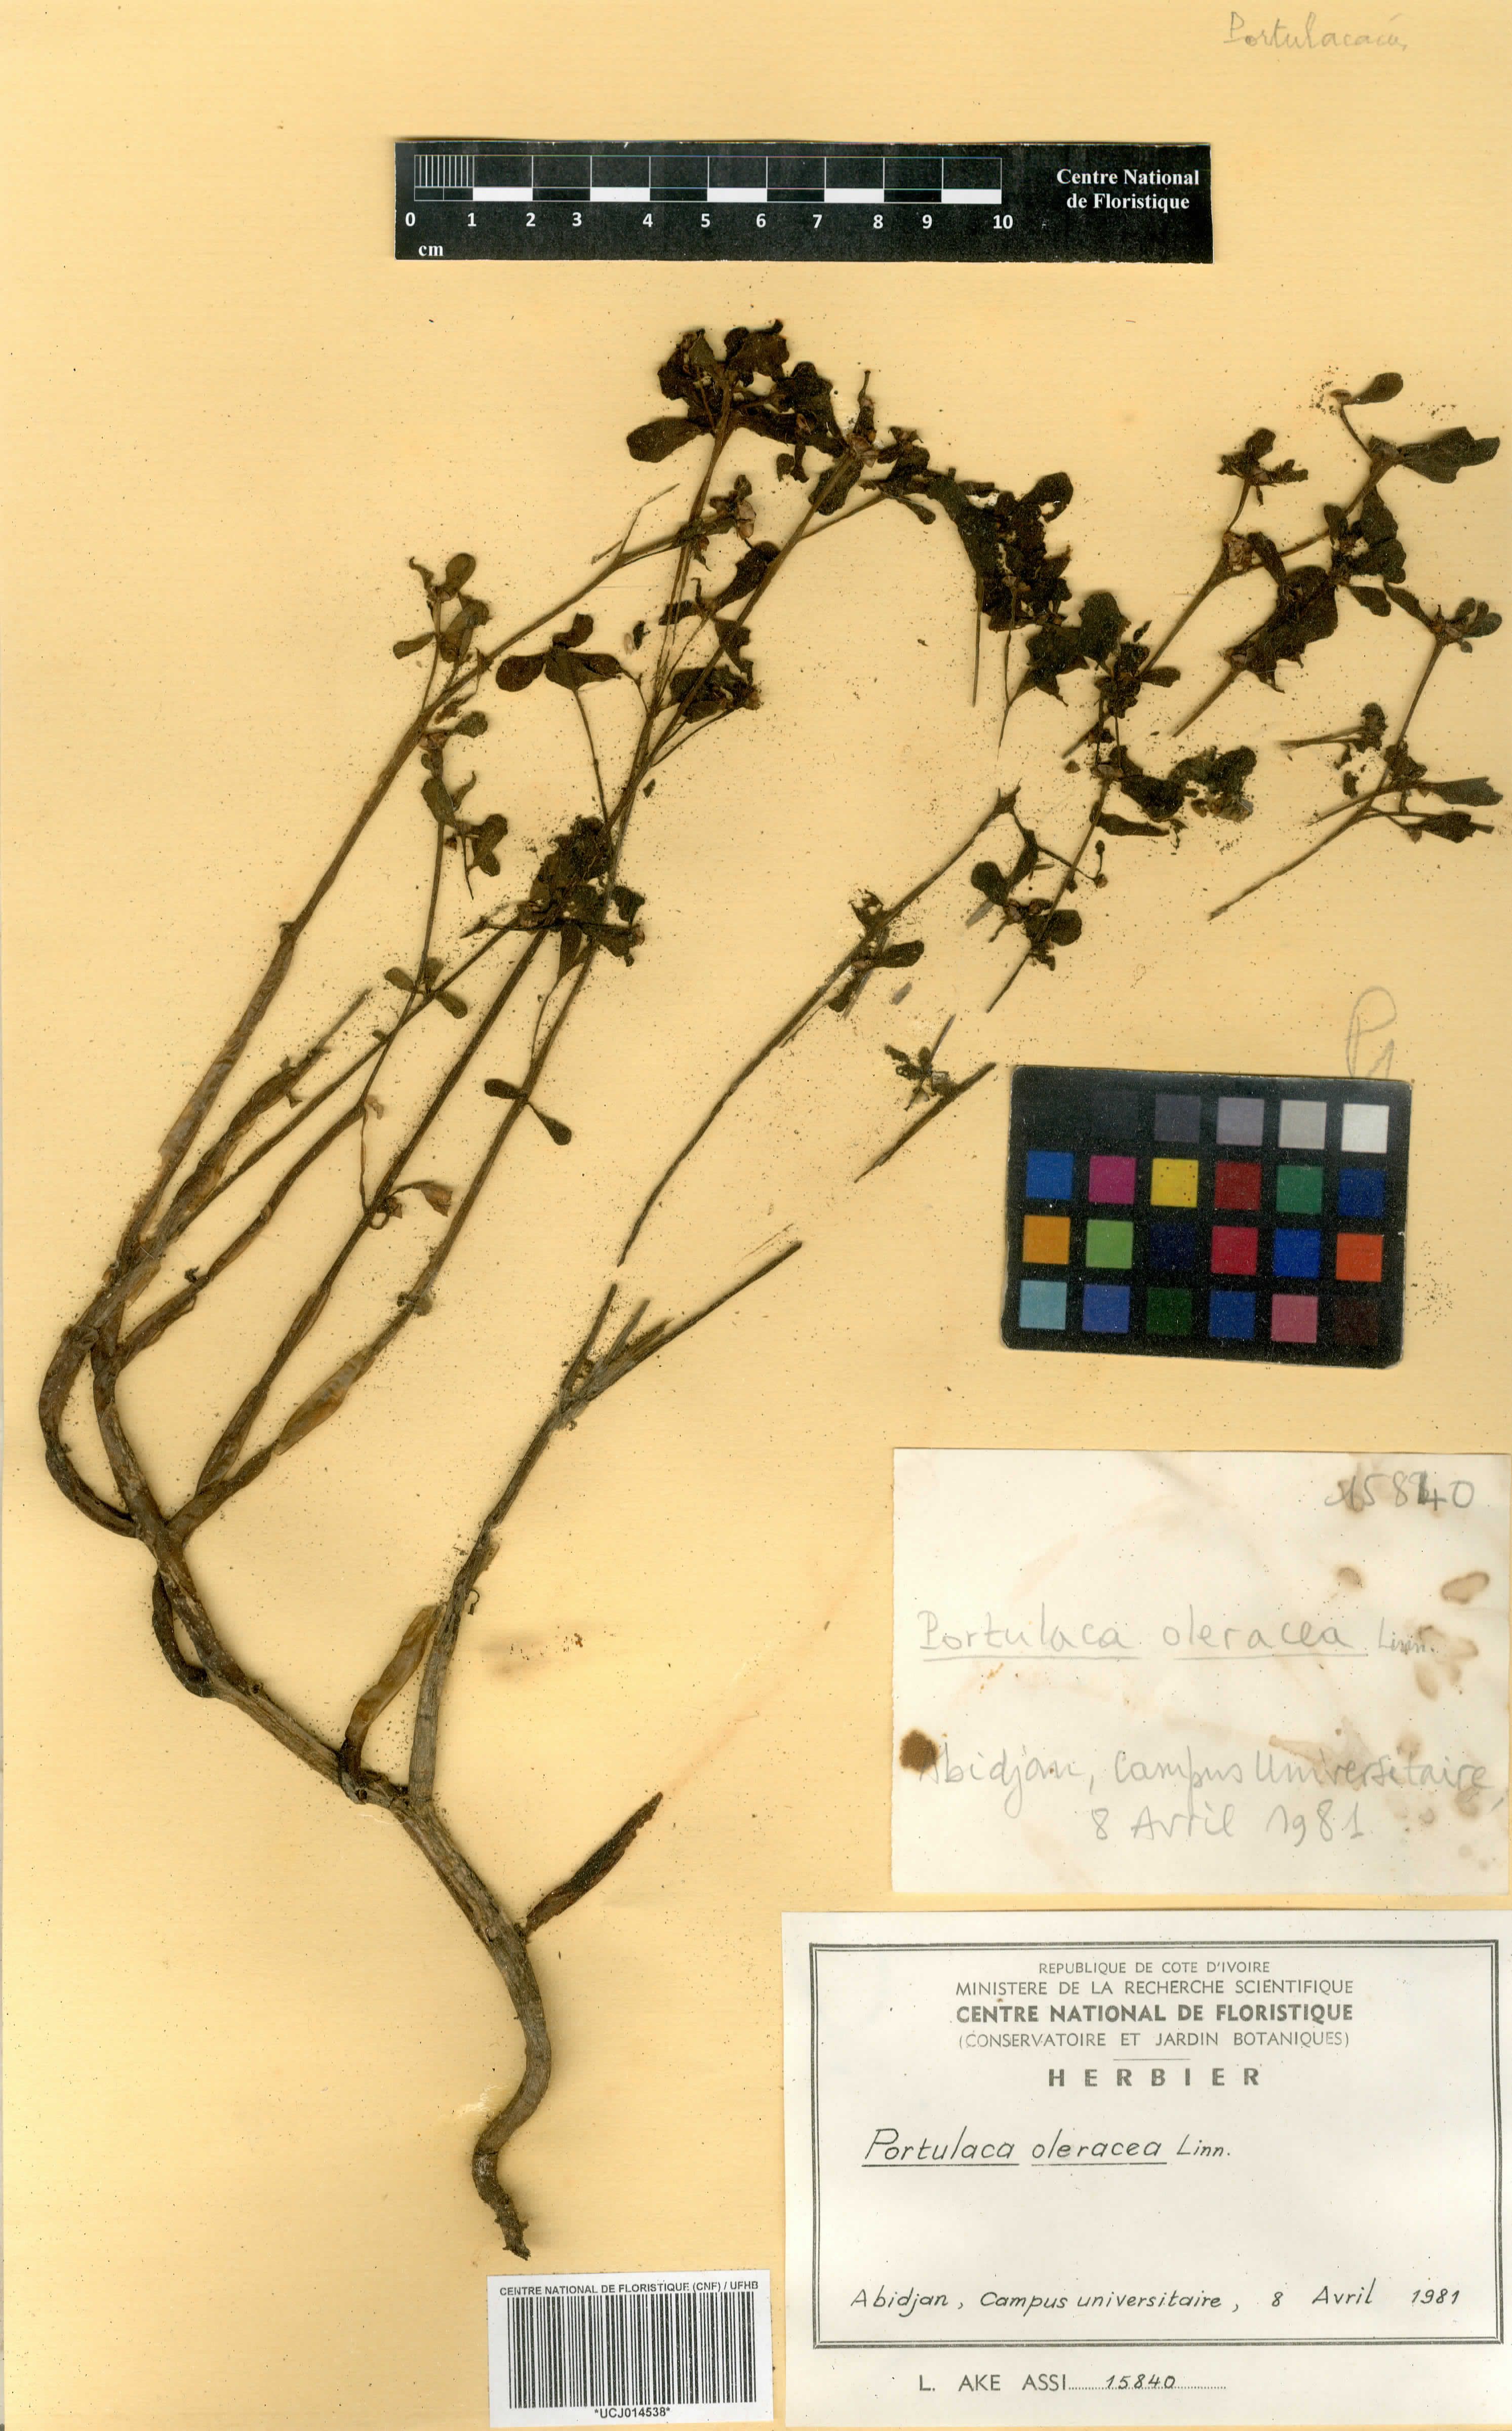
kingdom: Plantae
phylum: Tracheophyta
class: Magnoliopsida
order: Caryophyllales
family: Portulacaceae
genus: Portulaca
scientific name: Portulaca oleracea
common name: Common purslane
